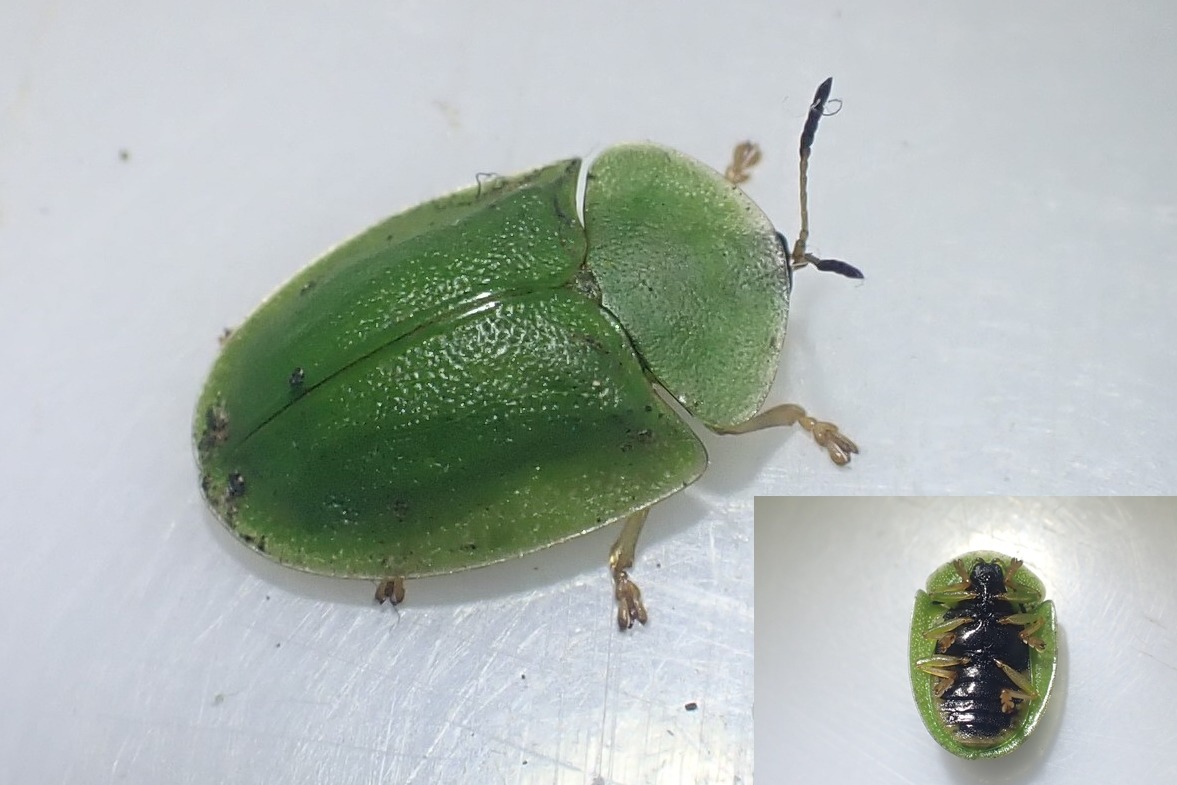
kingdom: Animalia
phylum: Arthropoda
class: Insecta
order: Coleoptera
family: Chrysomelidae
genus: Cassida
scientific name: Cassida viridis
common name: Stor skjoldbille
